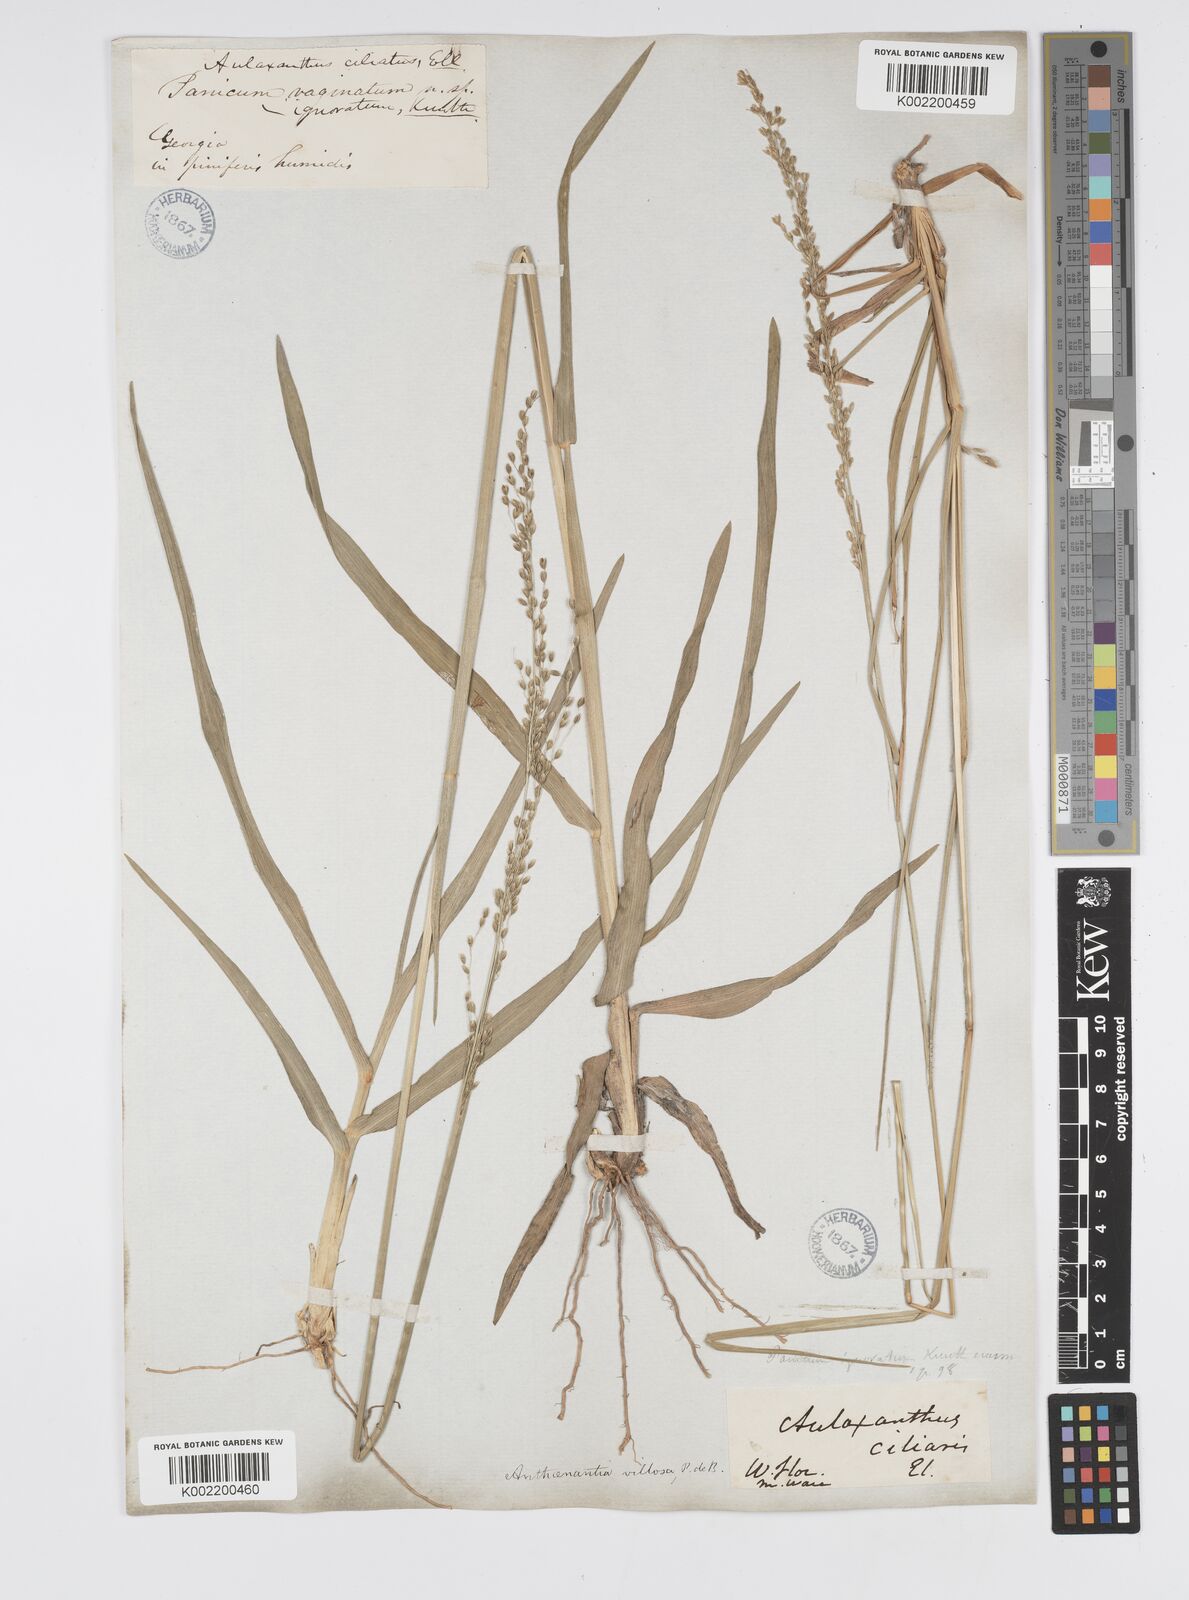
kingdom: Plantae
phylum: Tracheophyta
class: Liliopsida
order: Poales
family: Poaceae
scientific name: Poaceae
